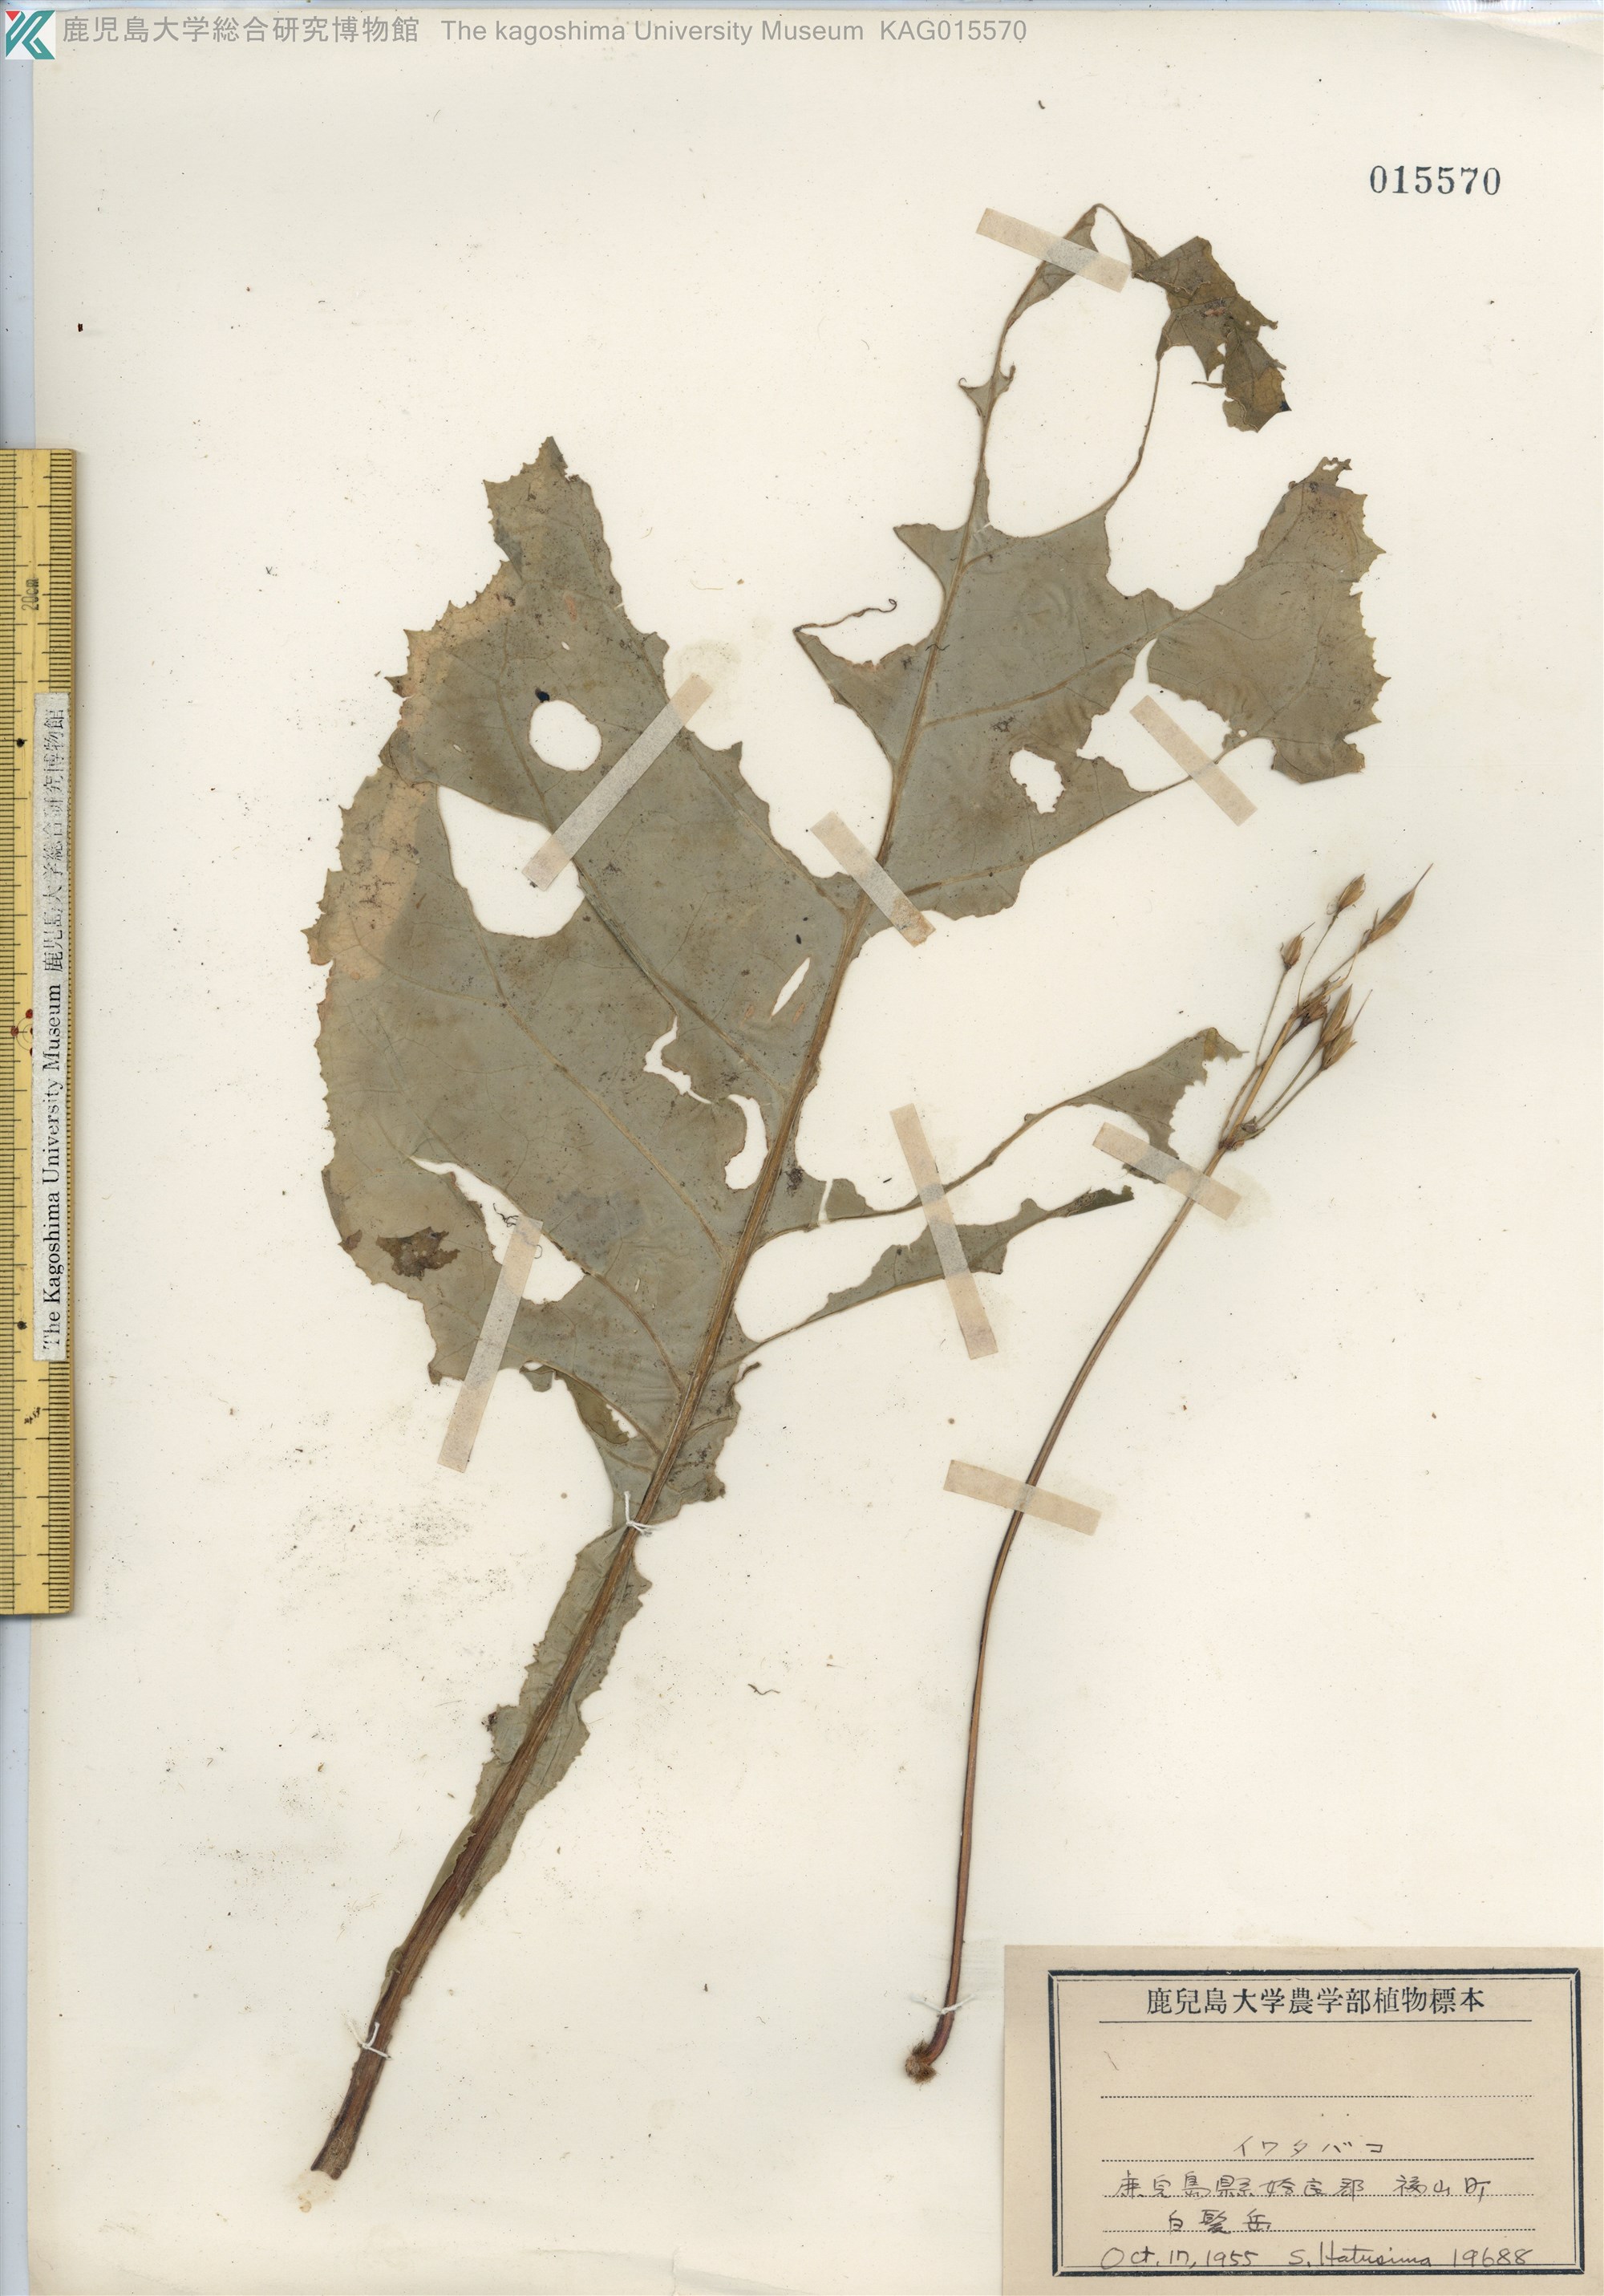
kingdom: Plantae
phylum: Tracheophyta
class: Magnoliopsida
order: Lamiales
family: Gesneriaceae
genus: Conandron
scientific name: Conandron ramondioides
